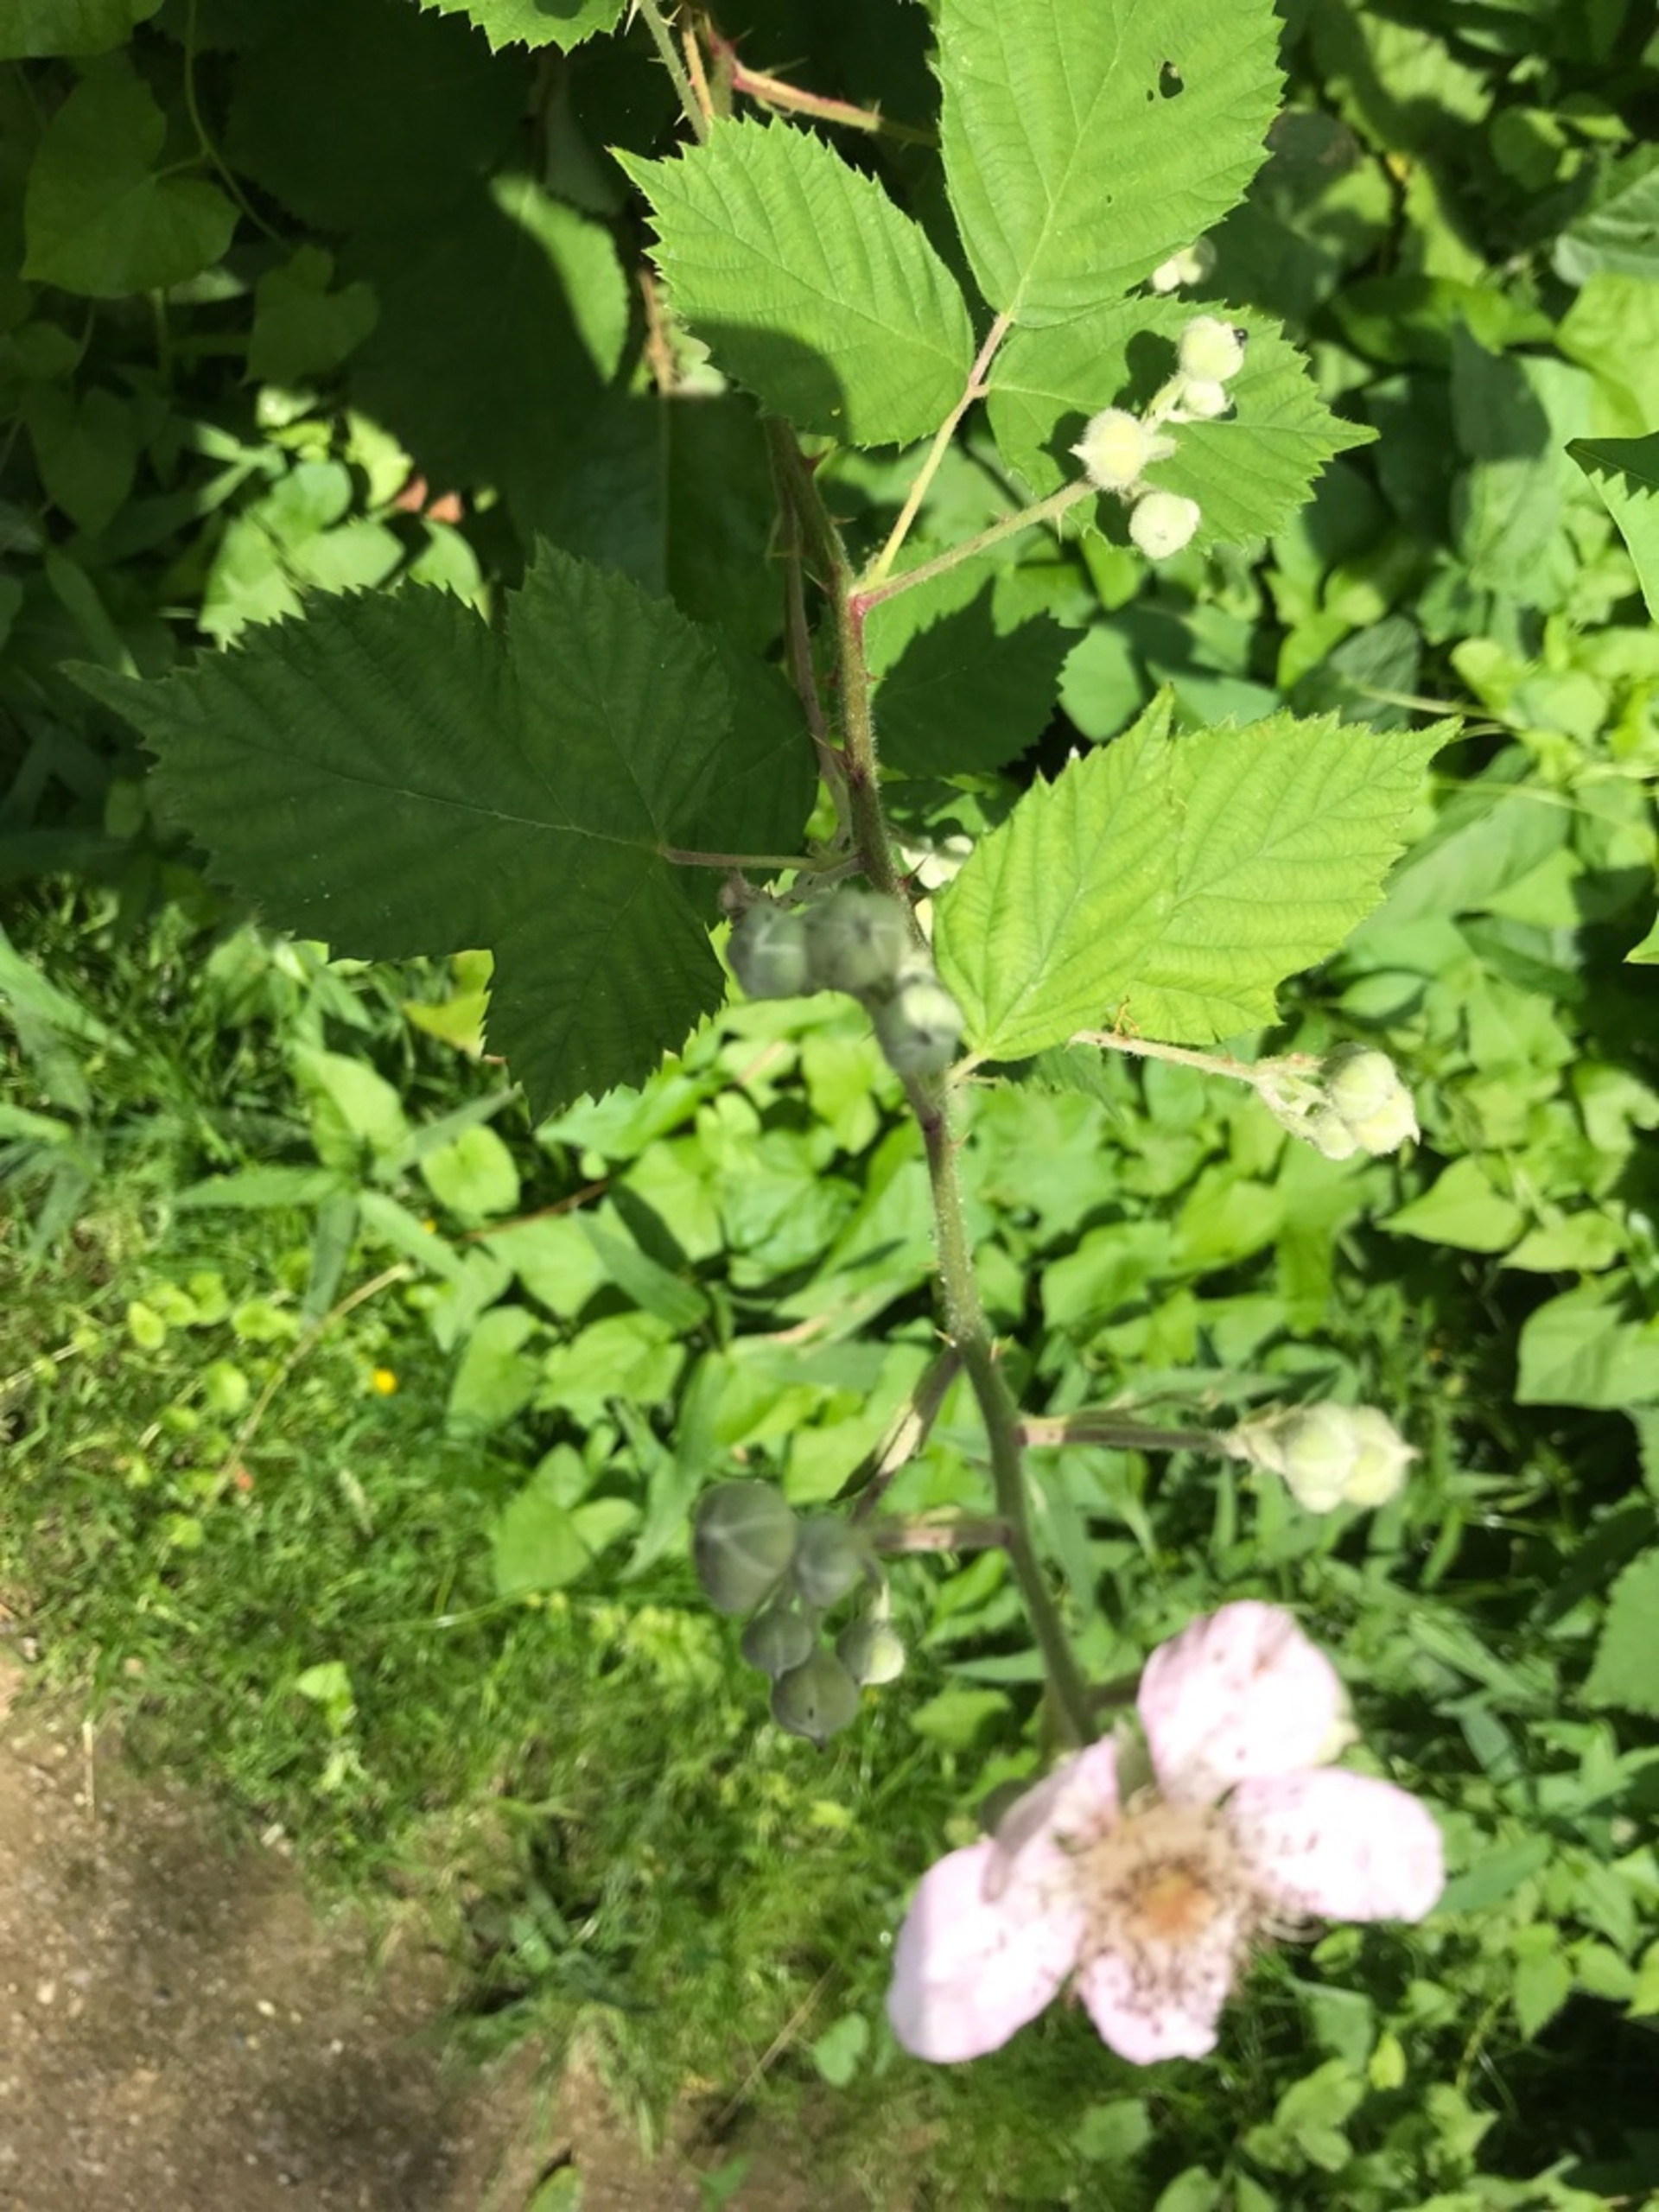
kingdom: Plantae
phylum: Tracheophyta
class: Magnoliopsida
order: Rosales
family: Rosaceae
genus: Rubus
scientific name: Rubus
